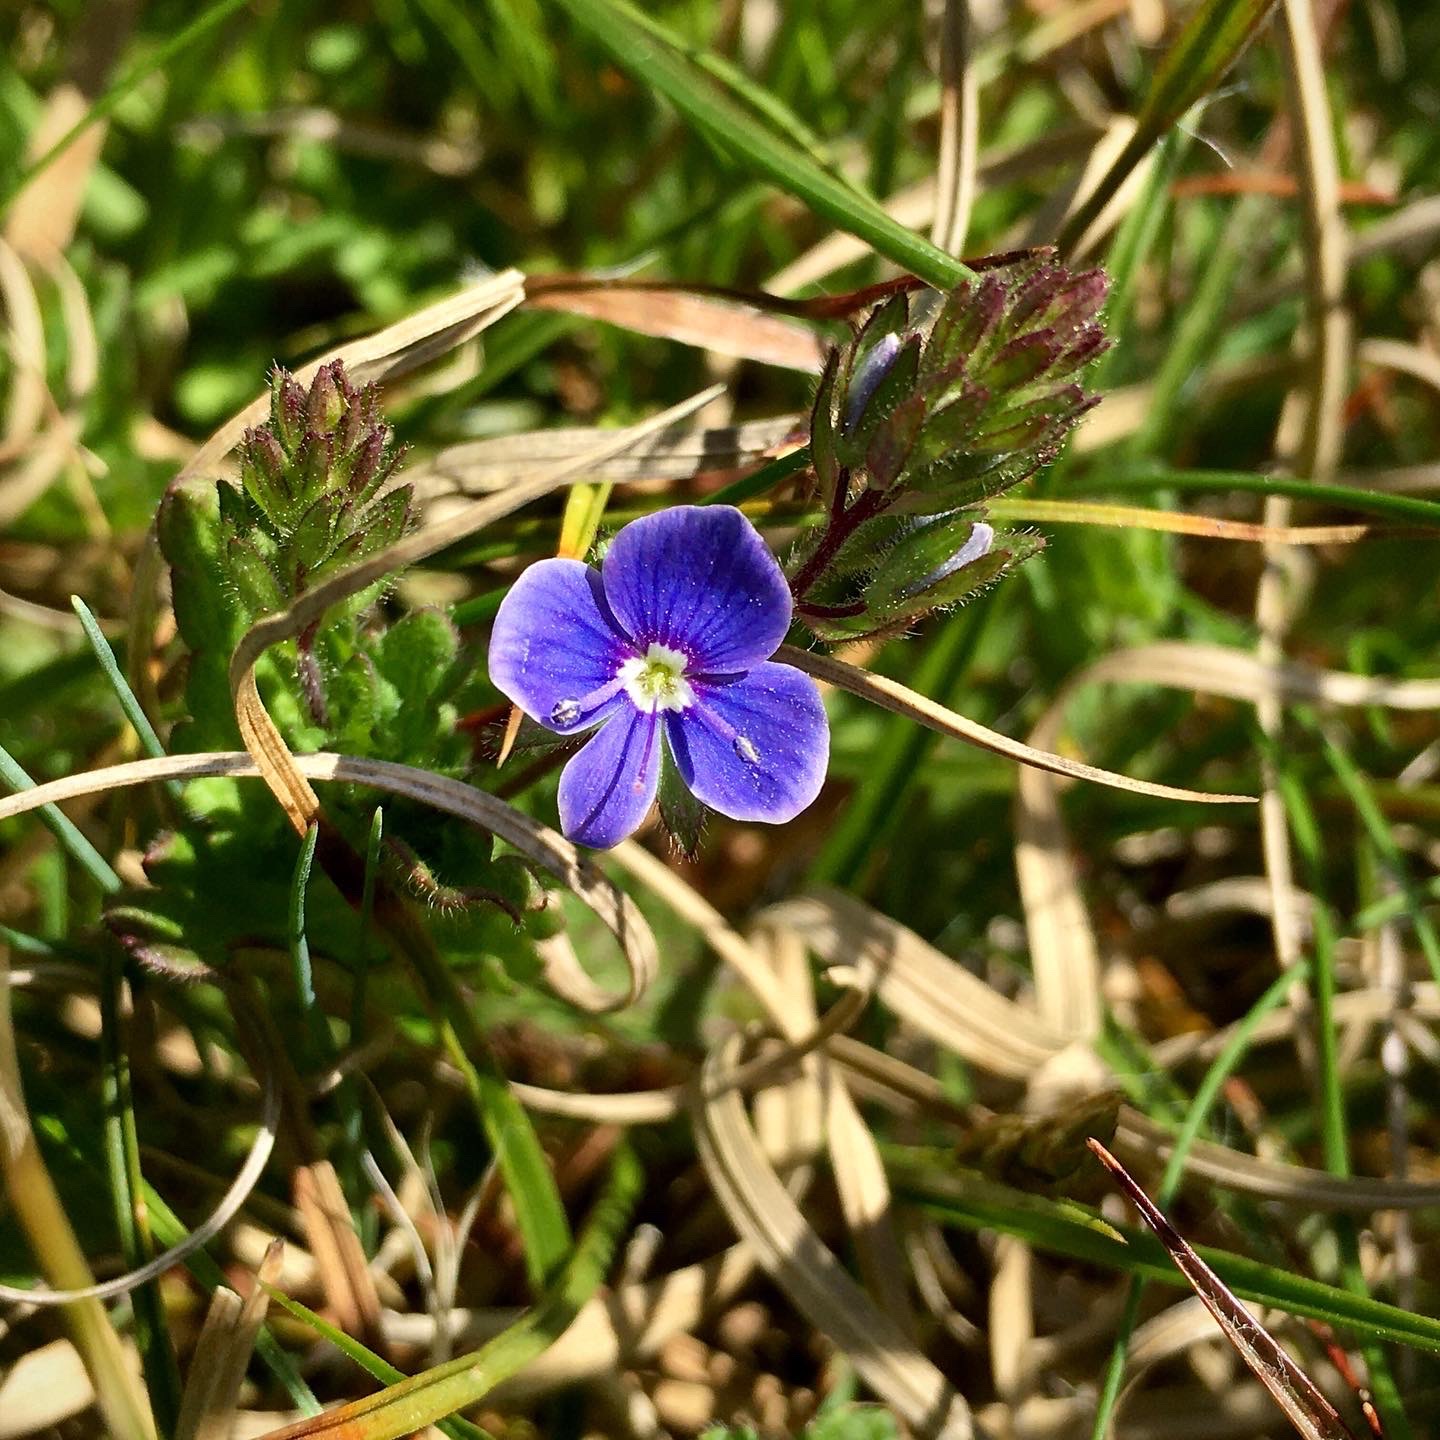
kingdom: Plantae
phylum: Tracheophyta
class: Magnoliopsida
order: Lamiales
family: Plantaginaceae
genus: Veronica
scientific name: Veronica chamaedrys
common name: Tveskægget ærenpris
